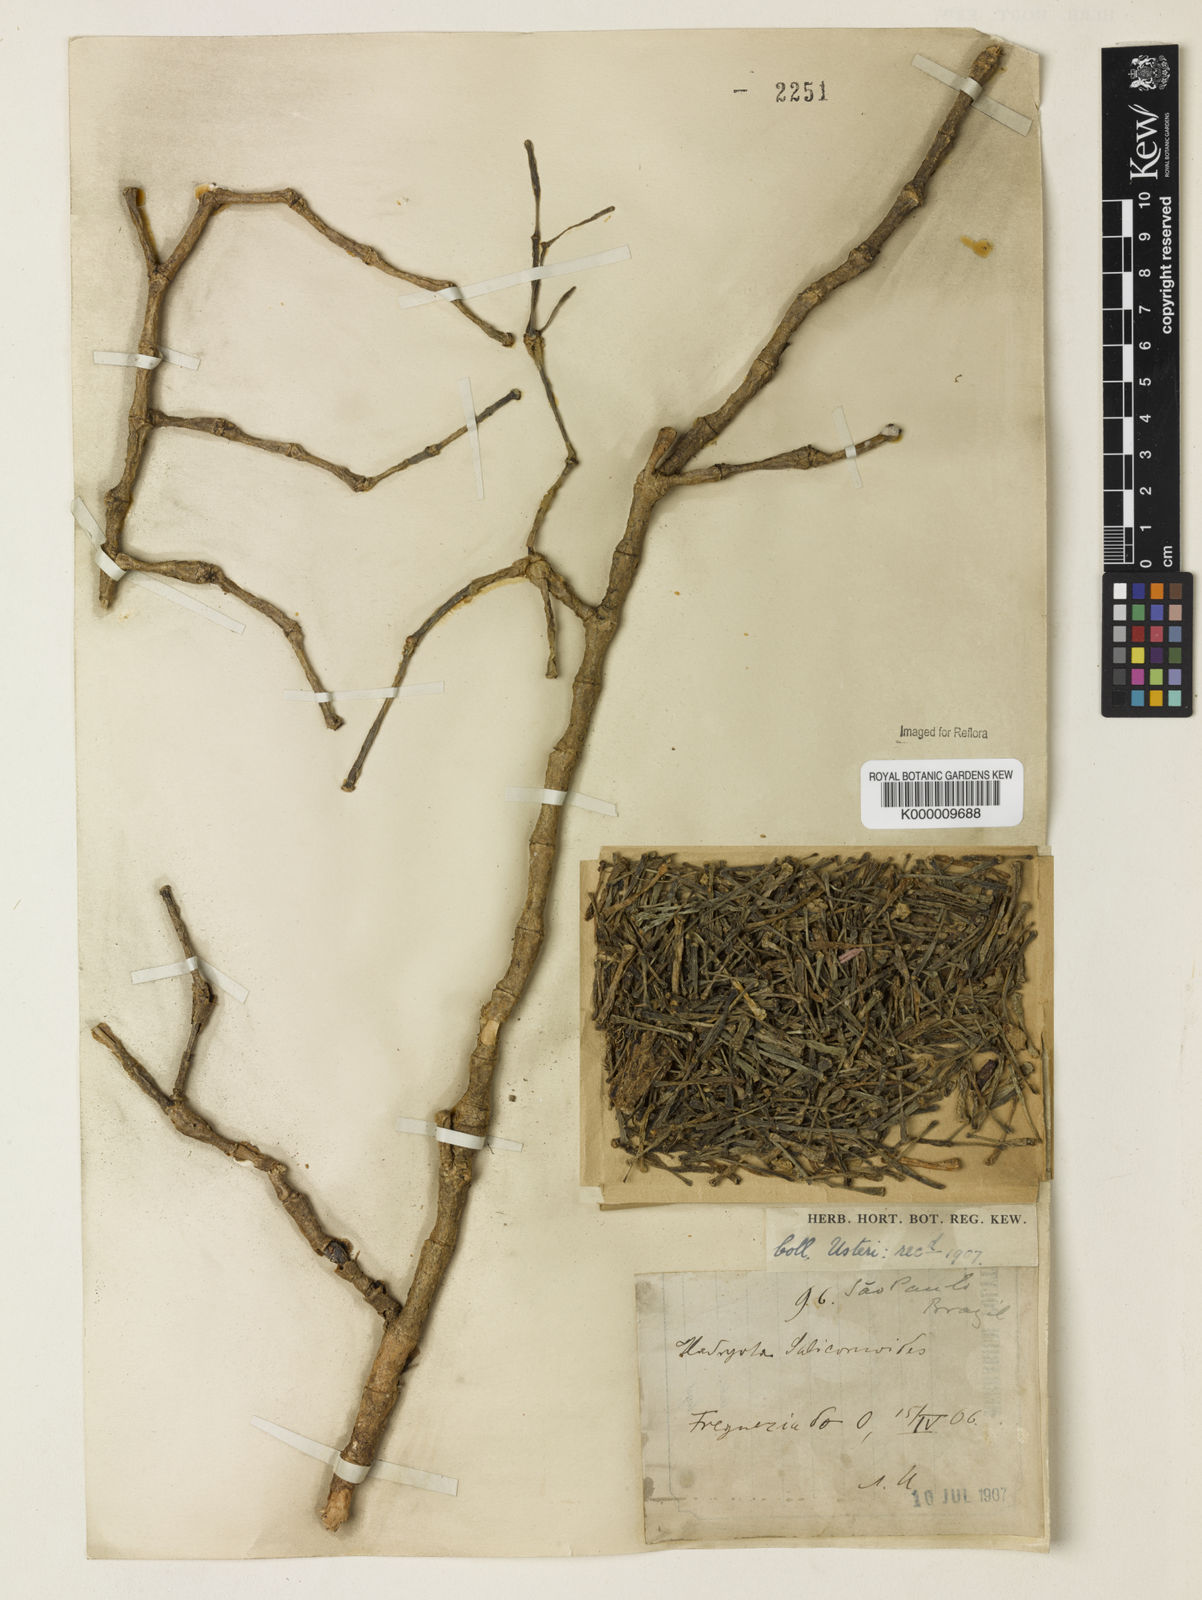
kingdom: Plantae
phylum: Tracheophyta
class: Magnoliopsida
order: Caryophyllales
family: Cactaceae
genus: Hatiora
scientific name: Hatiora
